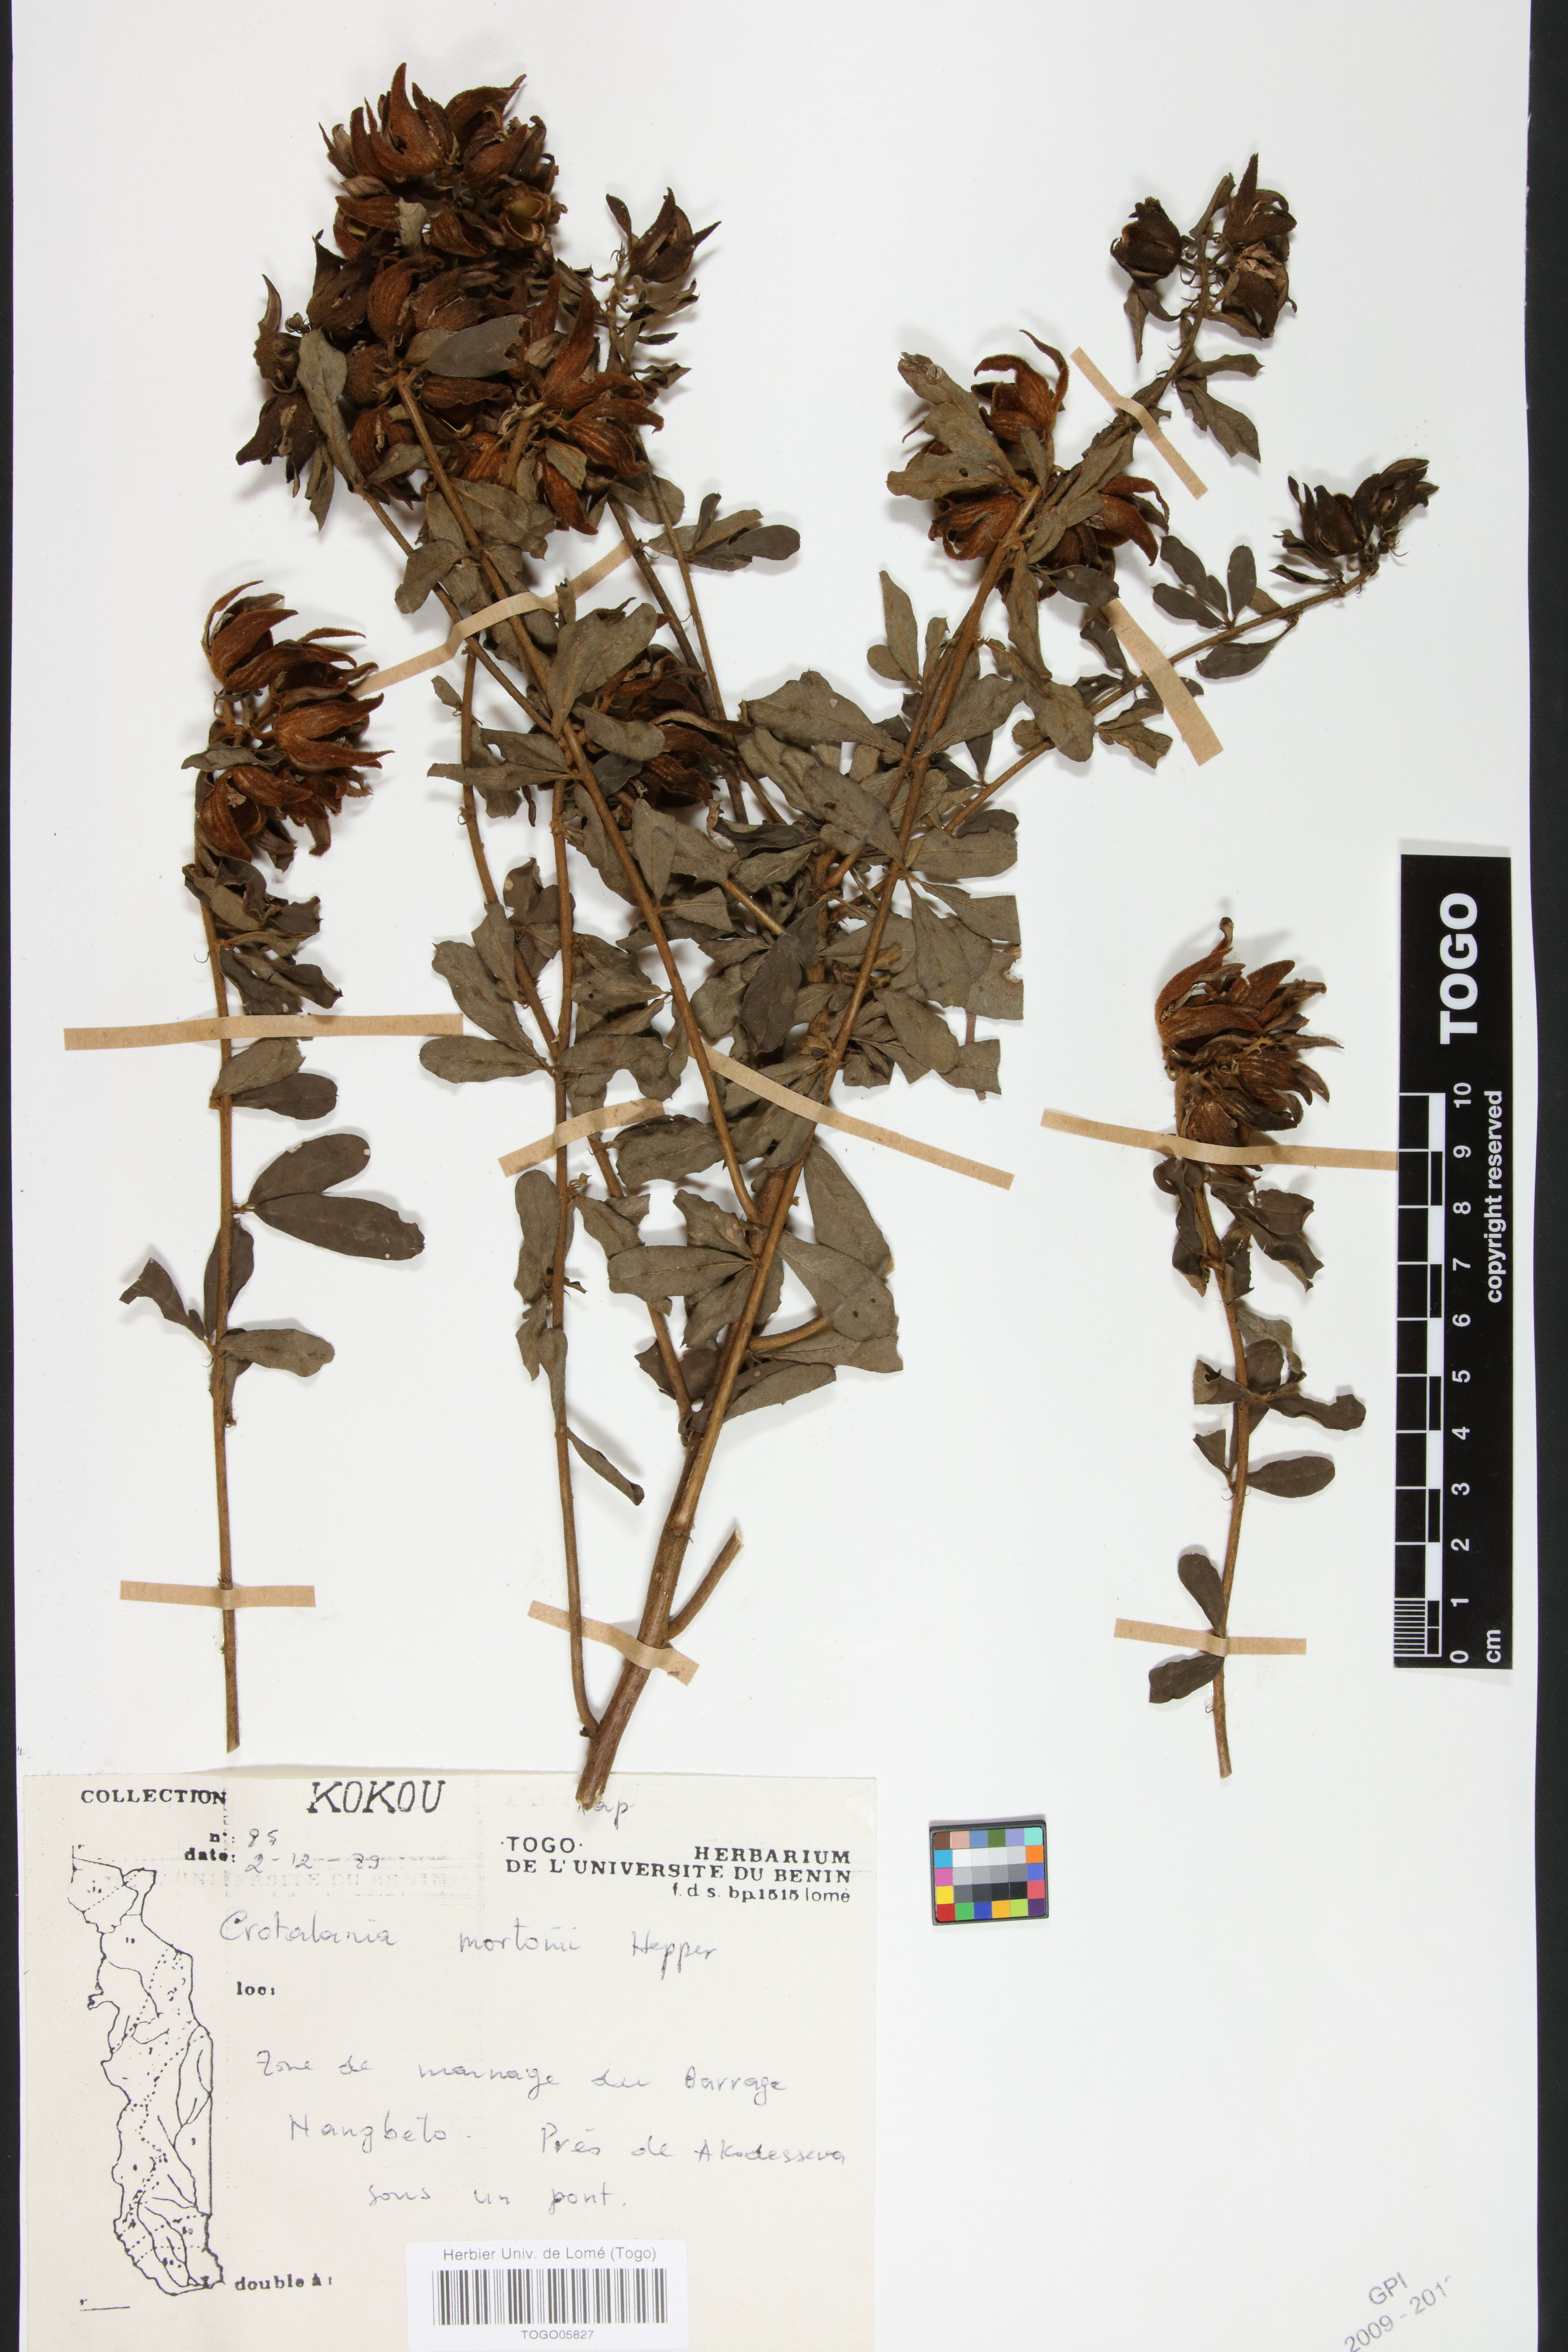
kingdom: Plantae
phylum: Tracheophyta
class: Magnoliopsida
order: Fabales
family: Fabaceae
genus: Crotalaria
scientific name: Crotalaria mortonii
